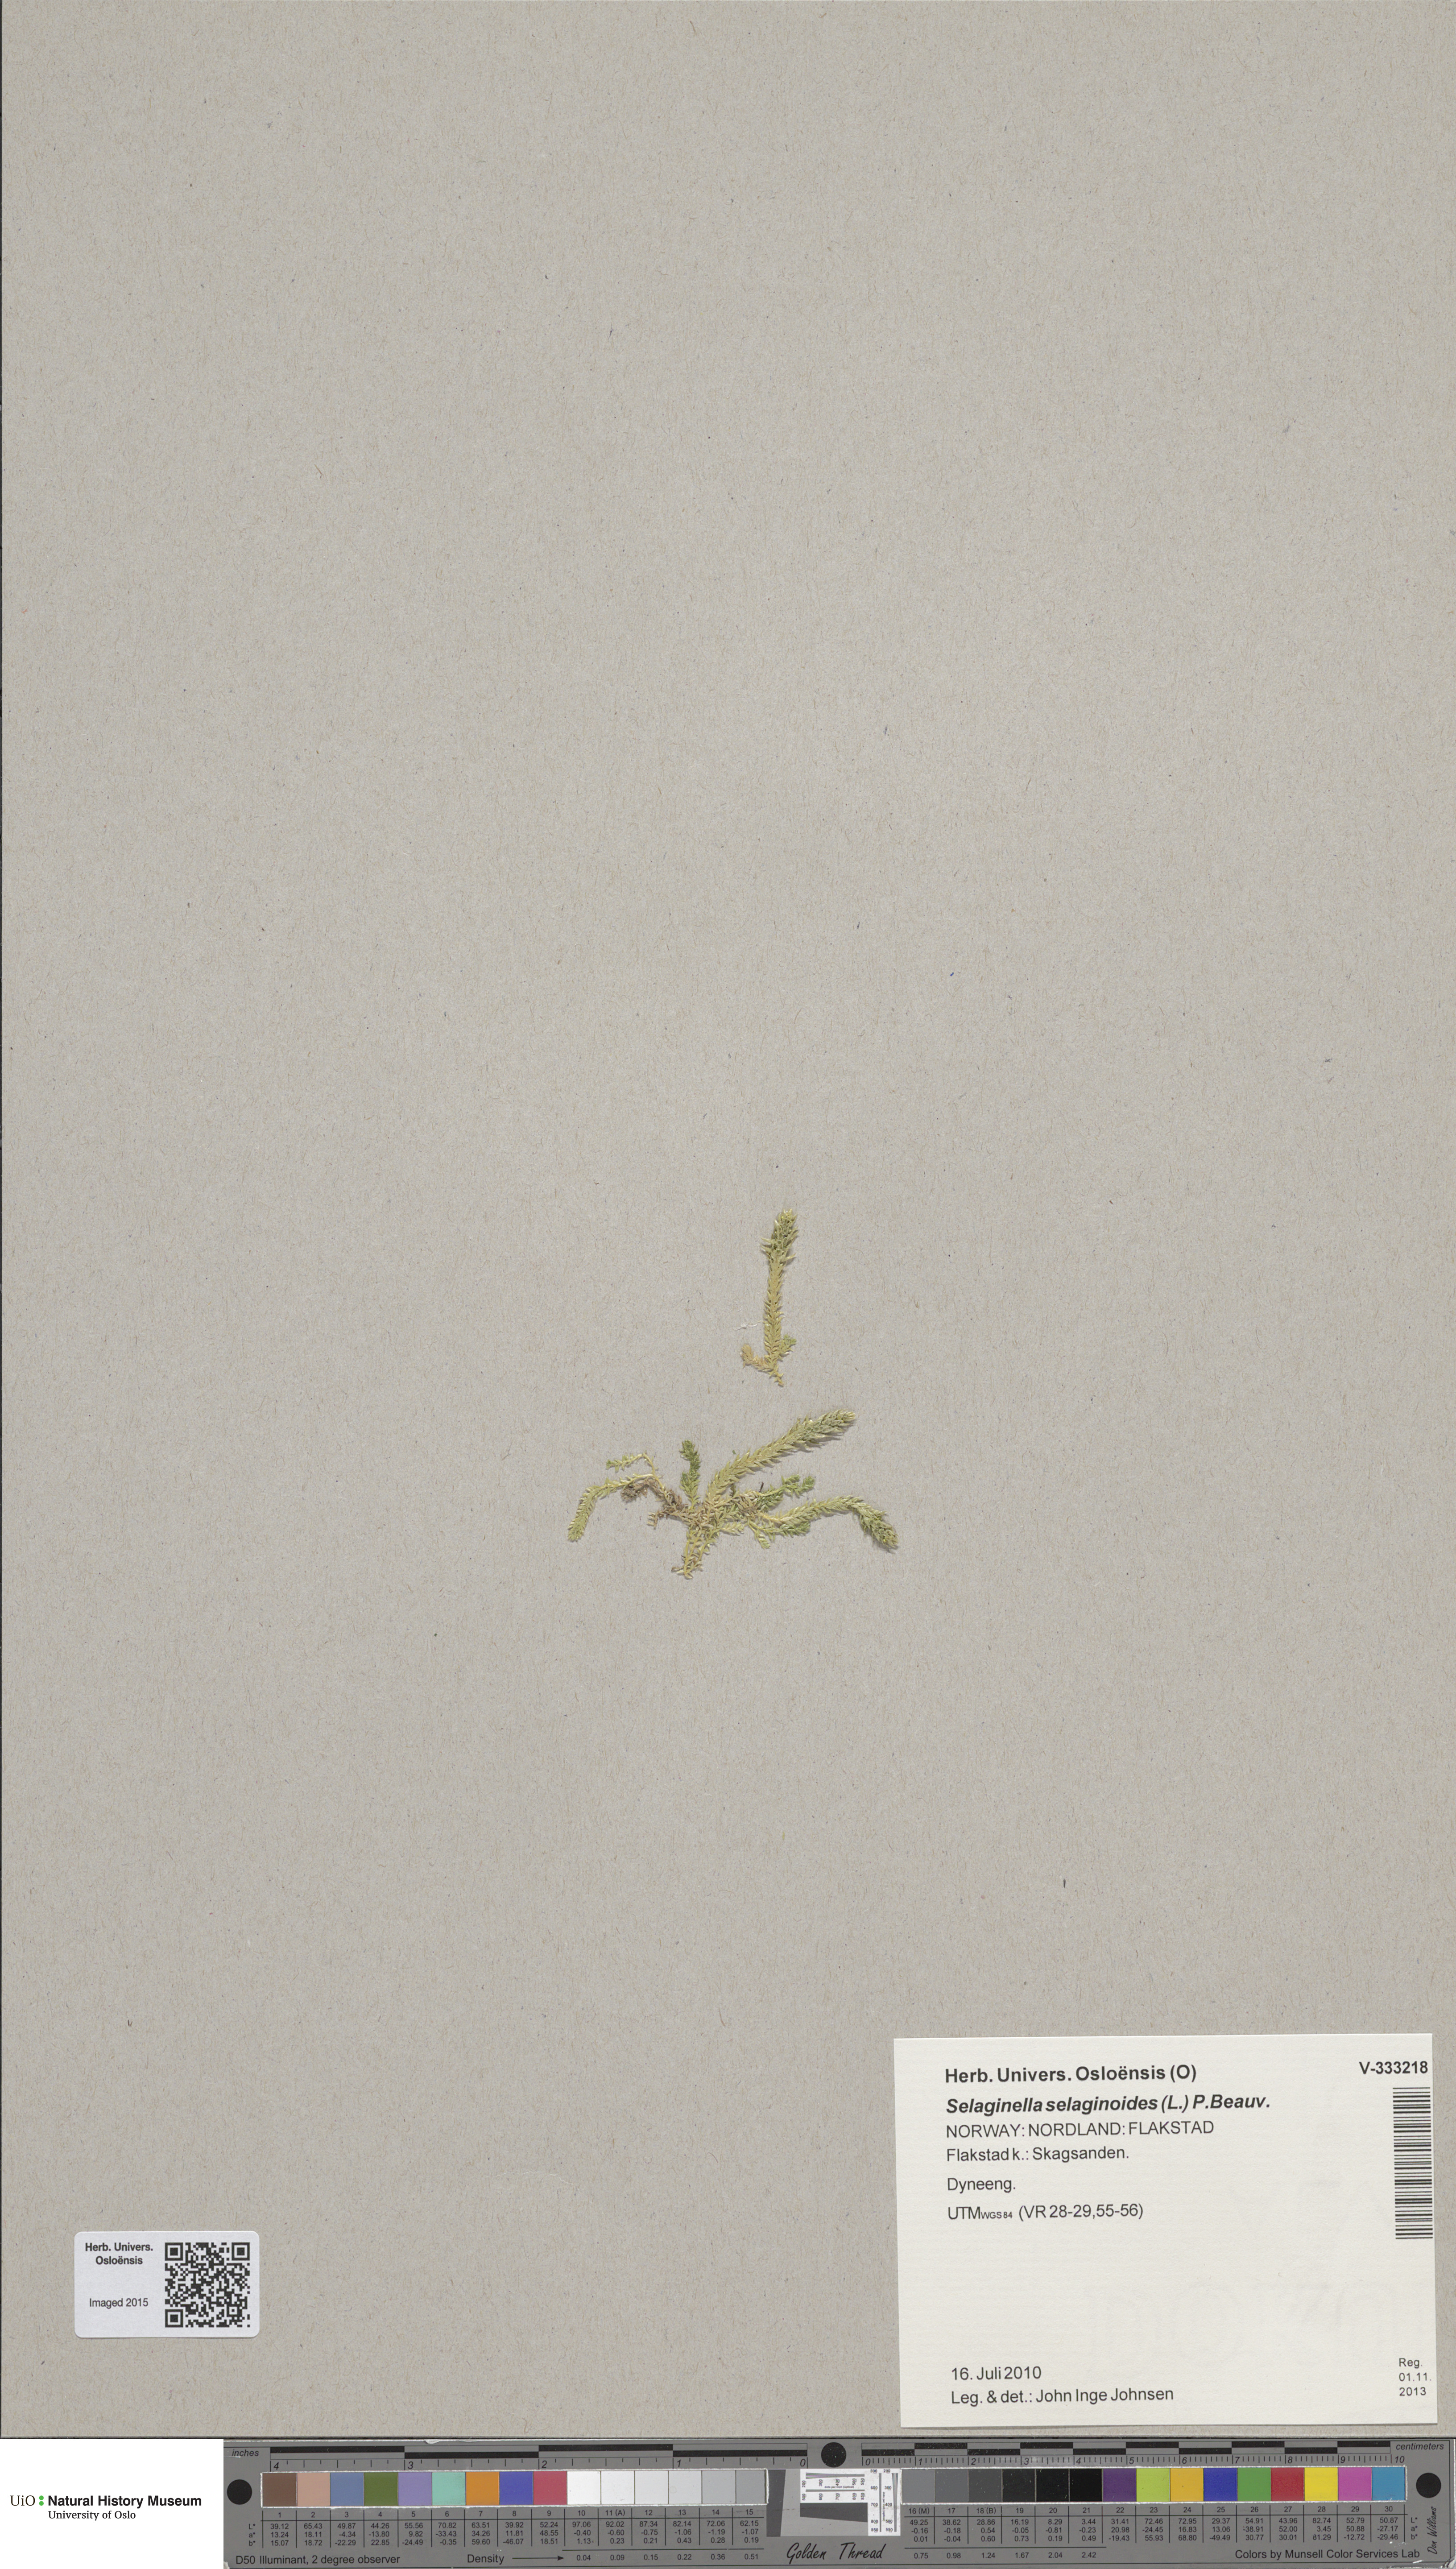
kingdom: Plantae
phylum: Tracheophyta
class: Lycopodiopsida
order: Selaginellales
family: Selaginellaceae
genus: Selaginella
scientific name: Selaginella selaginoides
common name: Prickly mountain-moss
